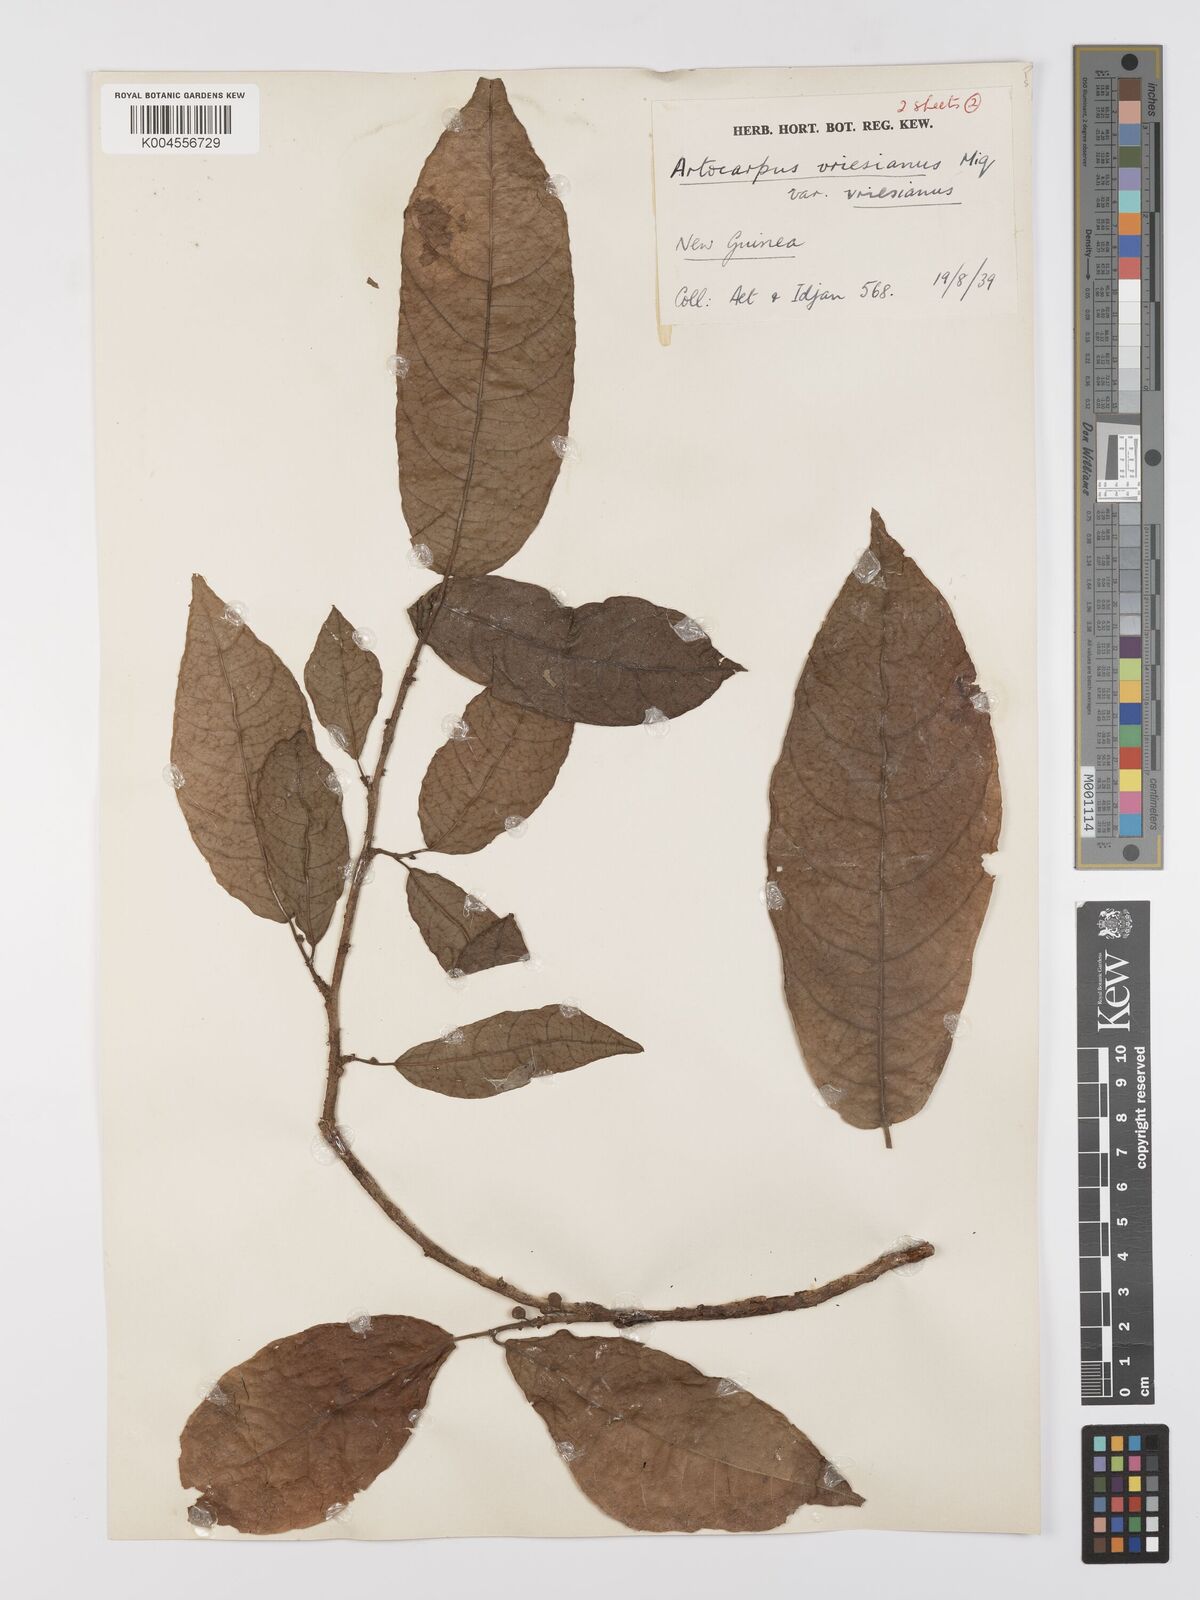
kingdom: Plantae
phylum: Tracheophyta
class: Magnoliopsida
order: Rosales
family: Moraceae
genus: Artocarpus
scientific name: Artocarpus vrieseanus
